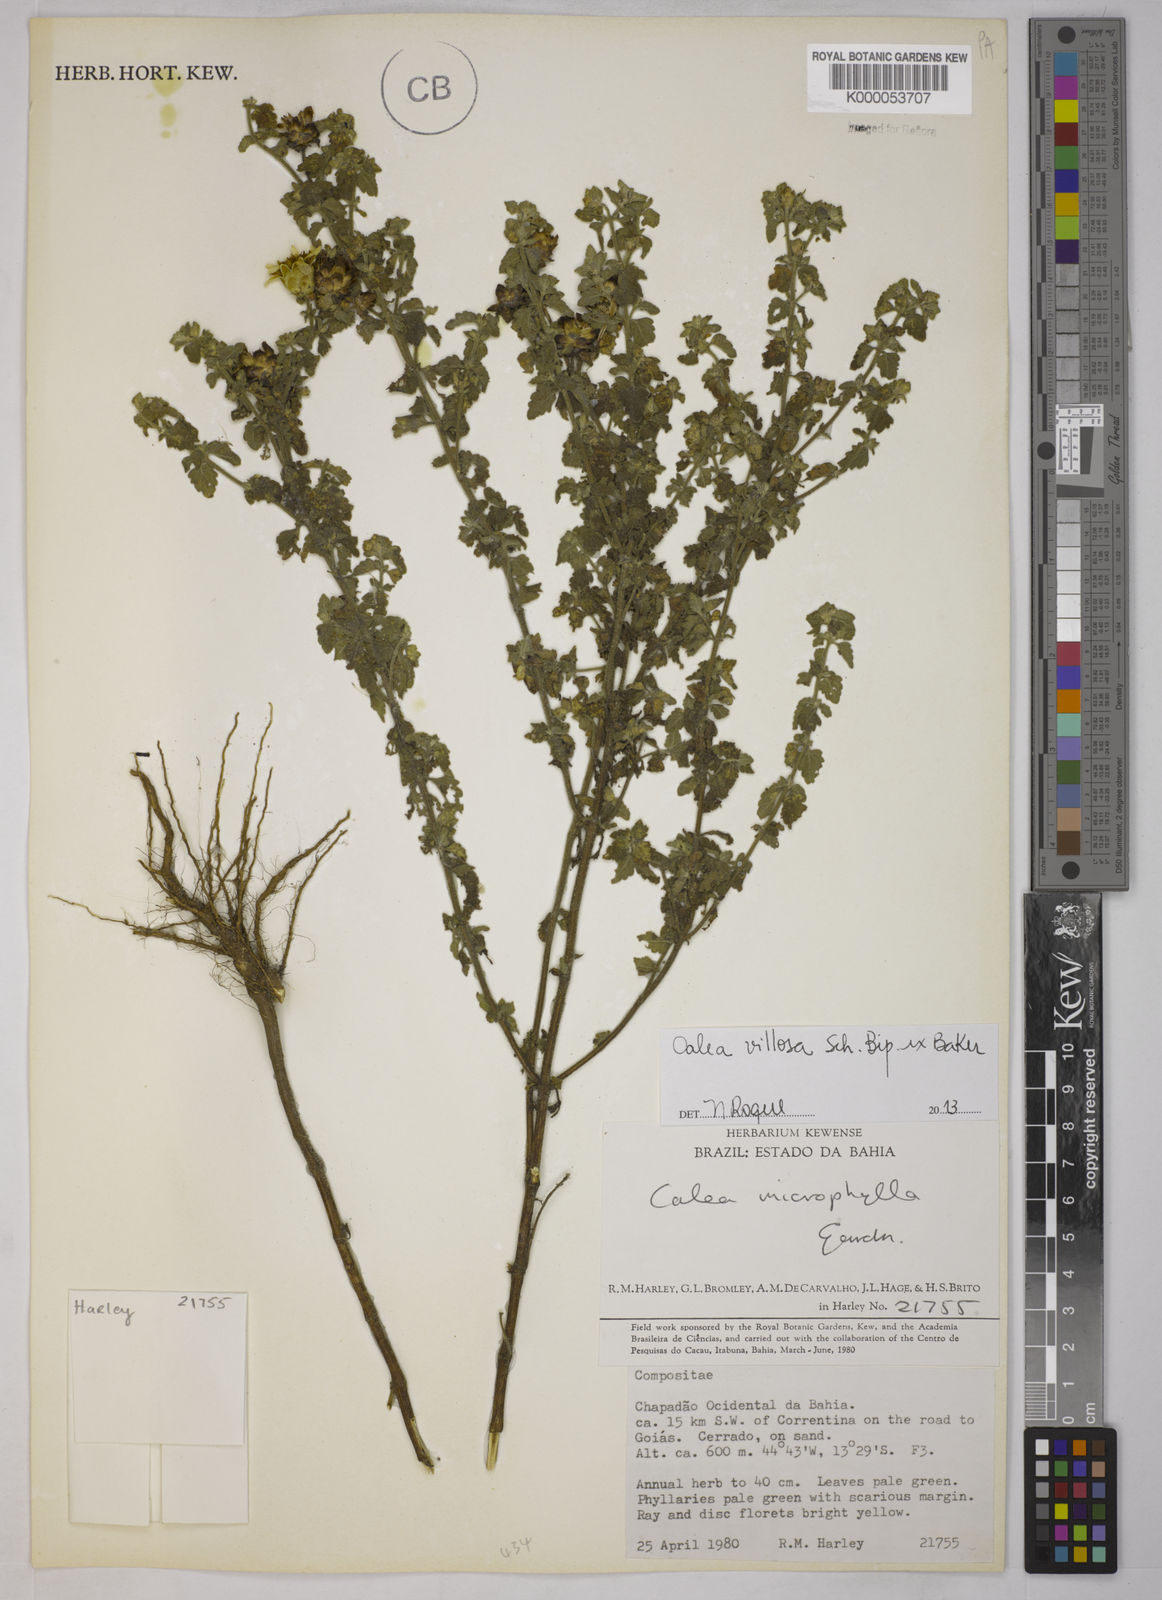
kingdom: Plantae
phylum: Tracheophyta
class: Magnoliopsida
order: Asterales
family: Asteraceae
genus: Calea
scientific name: Calea microphylla
